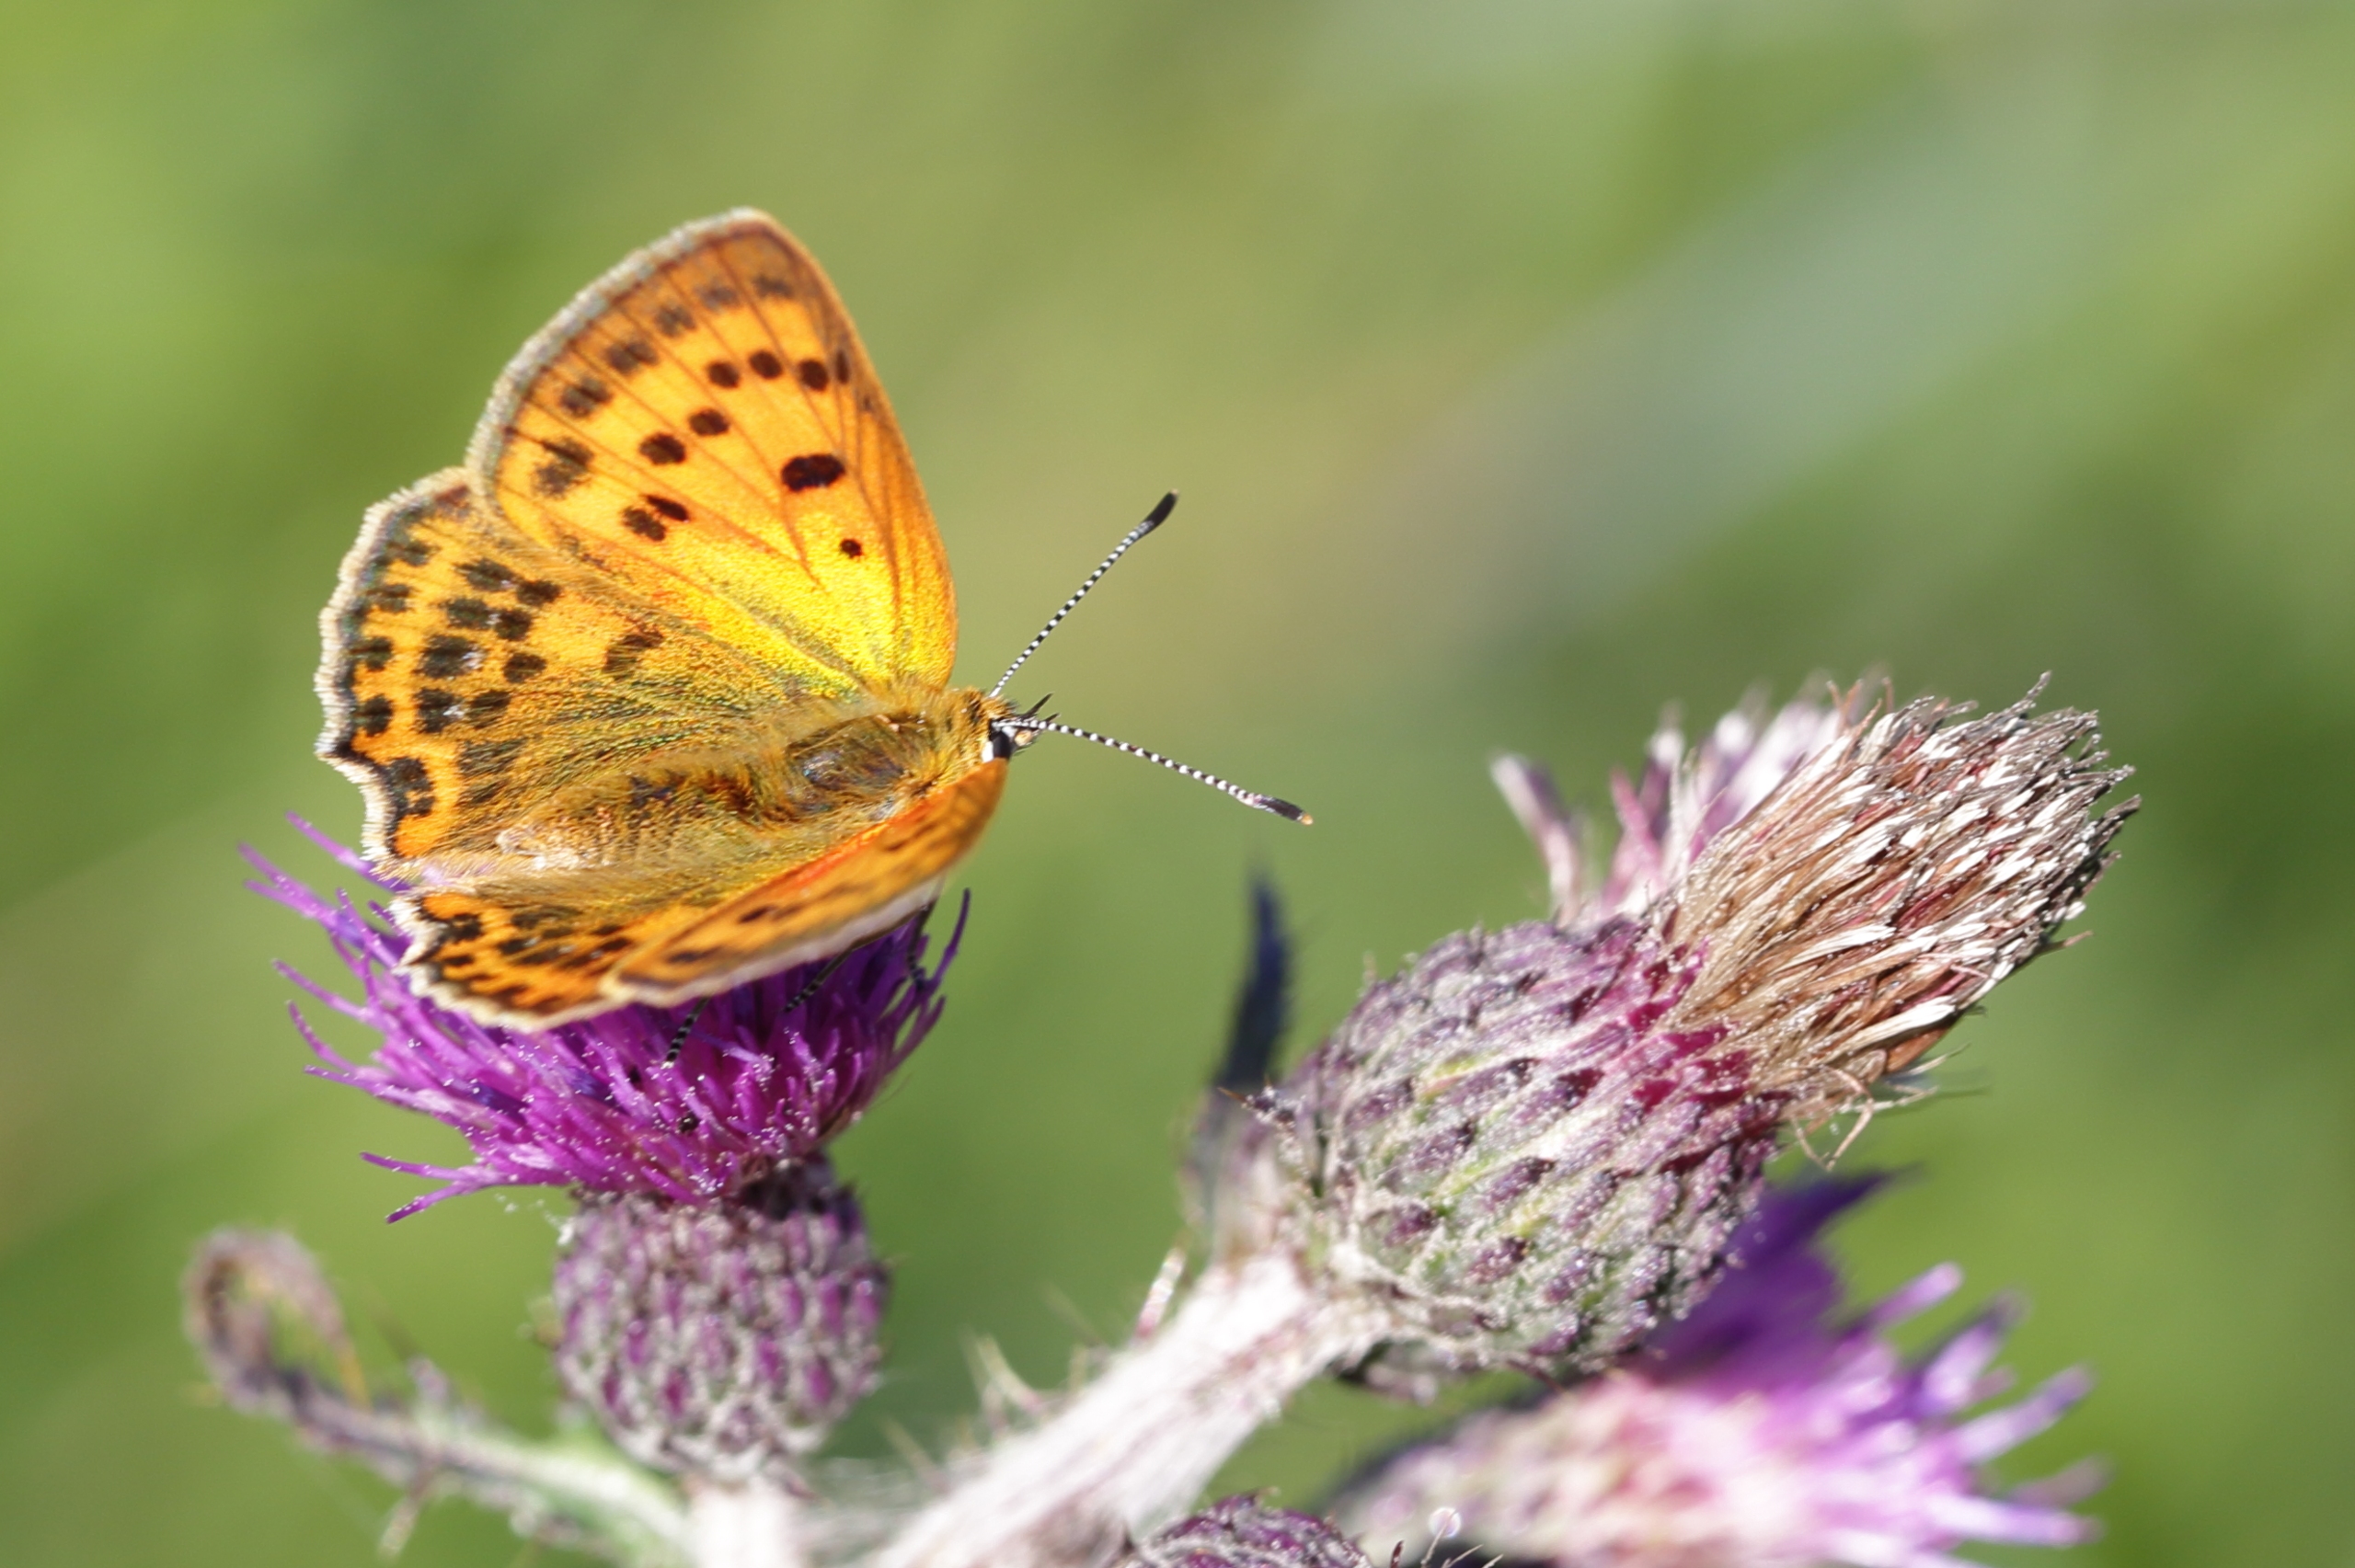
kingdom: Animalia
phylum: Arthropoda
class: Insecta
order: Lepidoptera
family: Lycaenidae
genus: Lycaena
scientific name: Lycaena virgaureae
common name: Dukatsommerfugl
